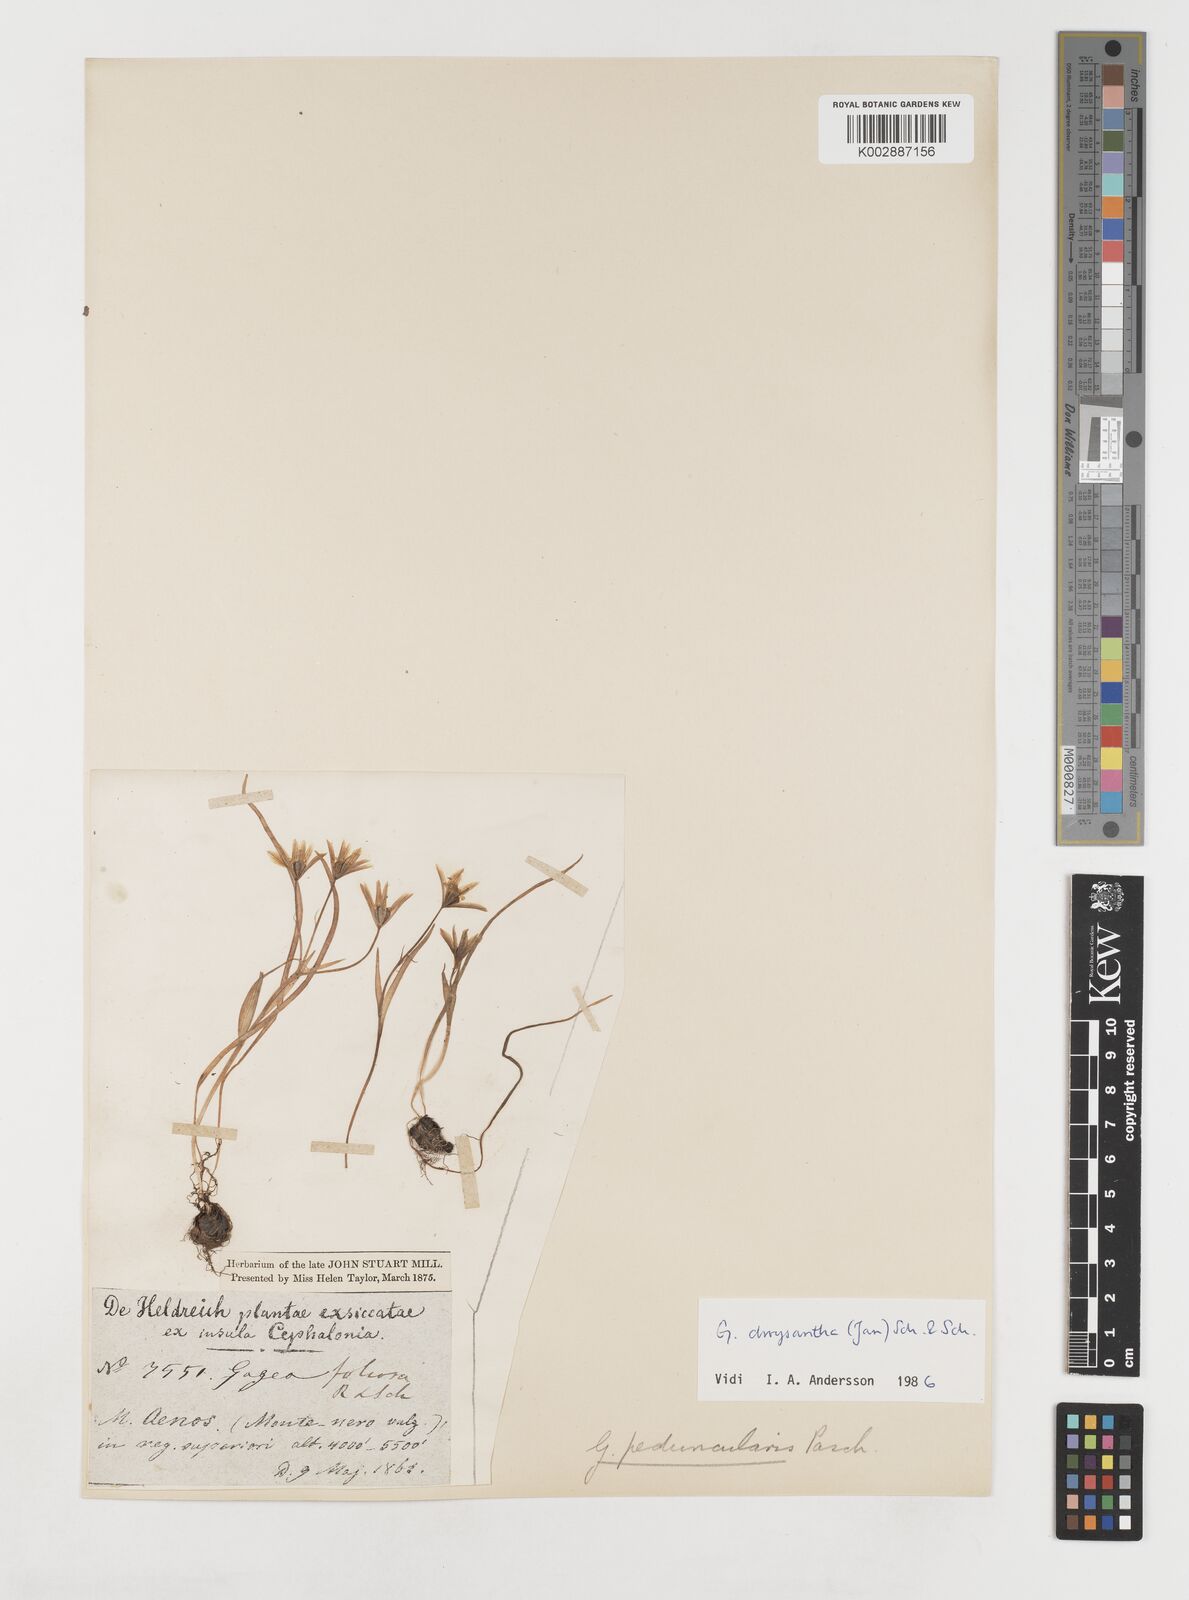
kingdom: Plantae
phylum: Tracheophyta
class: Liliopsida
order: Liliales
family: Liliaceae
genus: Gagea
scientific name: Gagea
